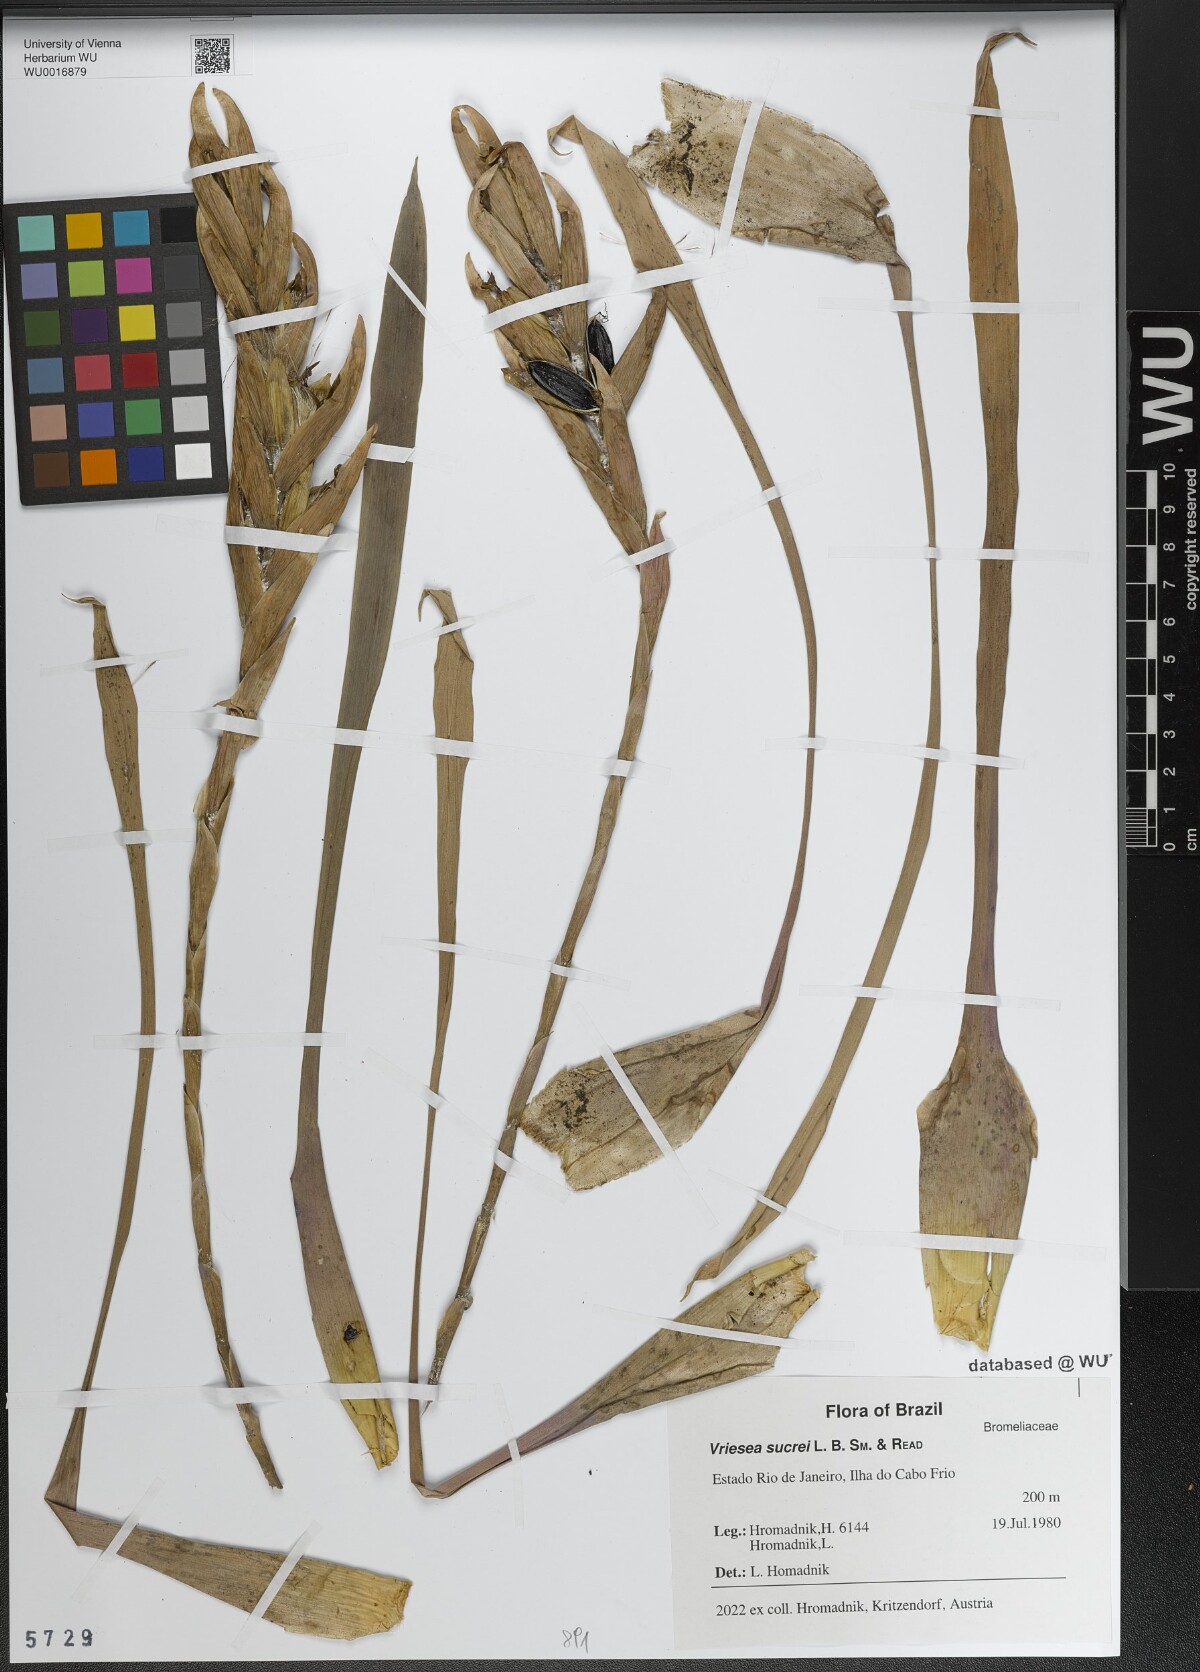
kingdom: Plantae
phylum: Tracheophyta
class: Liliopsida
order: Poales
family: Bromeliaceae
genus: Vriesea
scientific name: Vriesea sucrei
